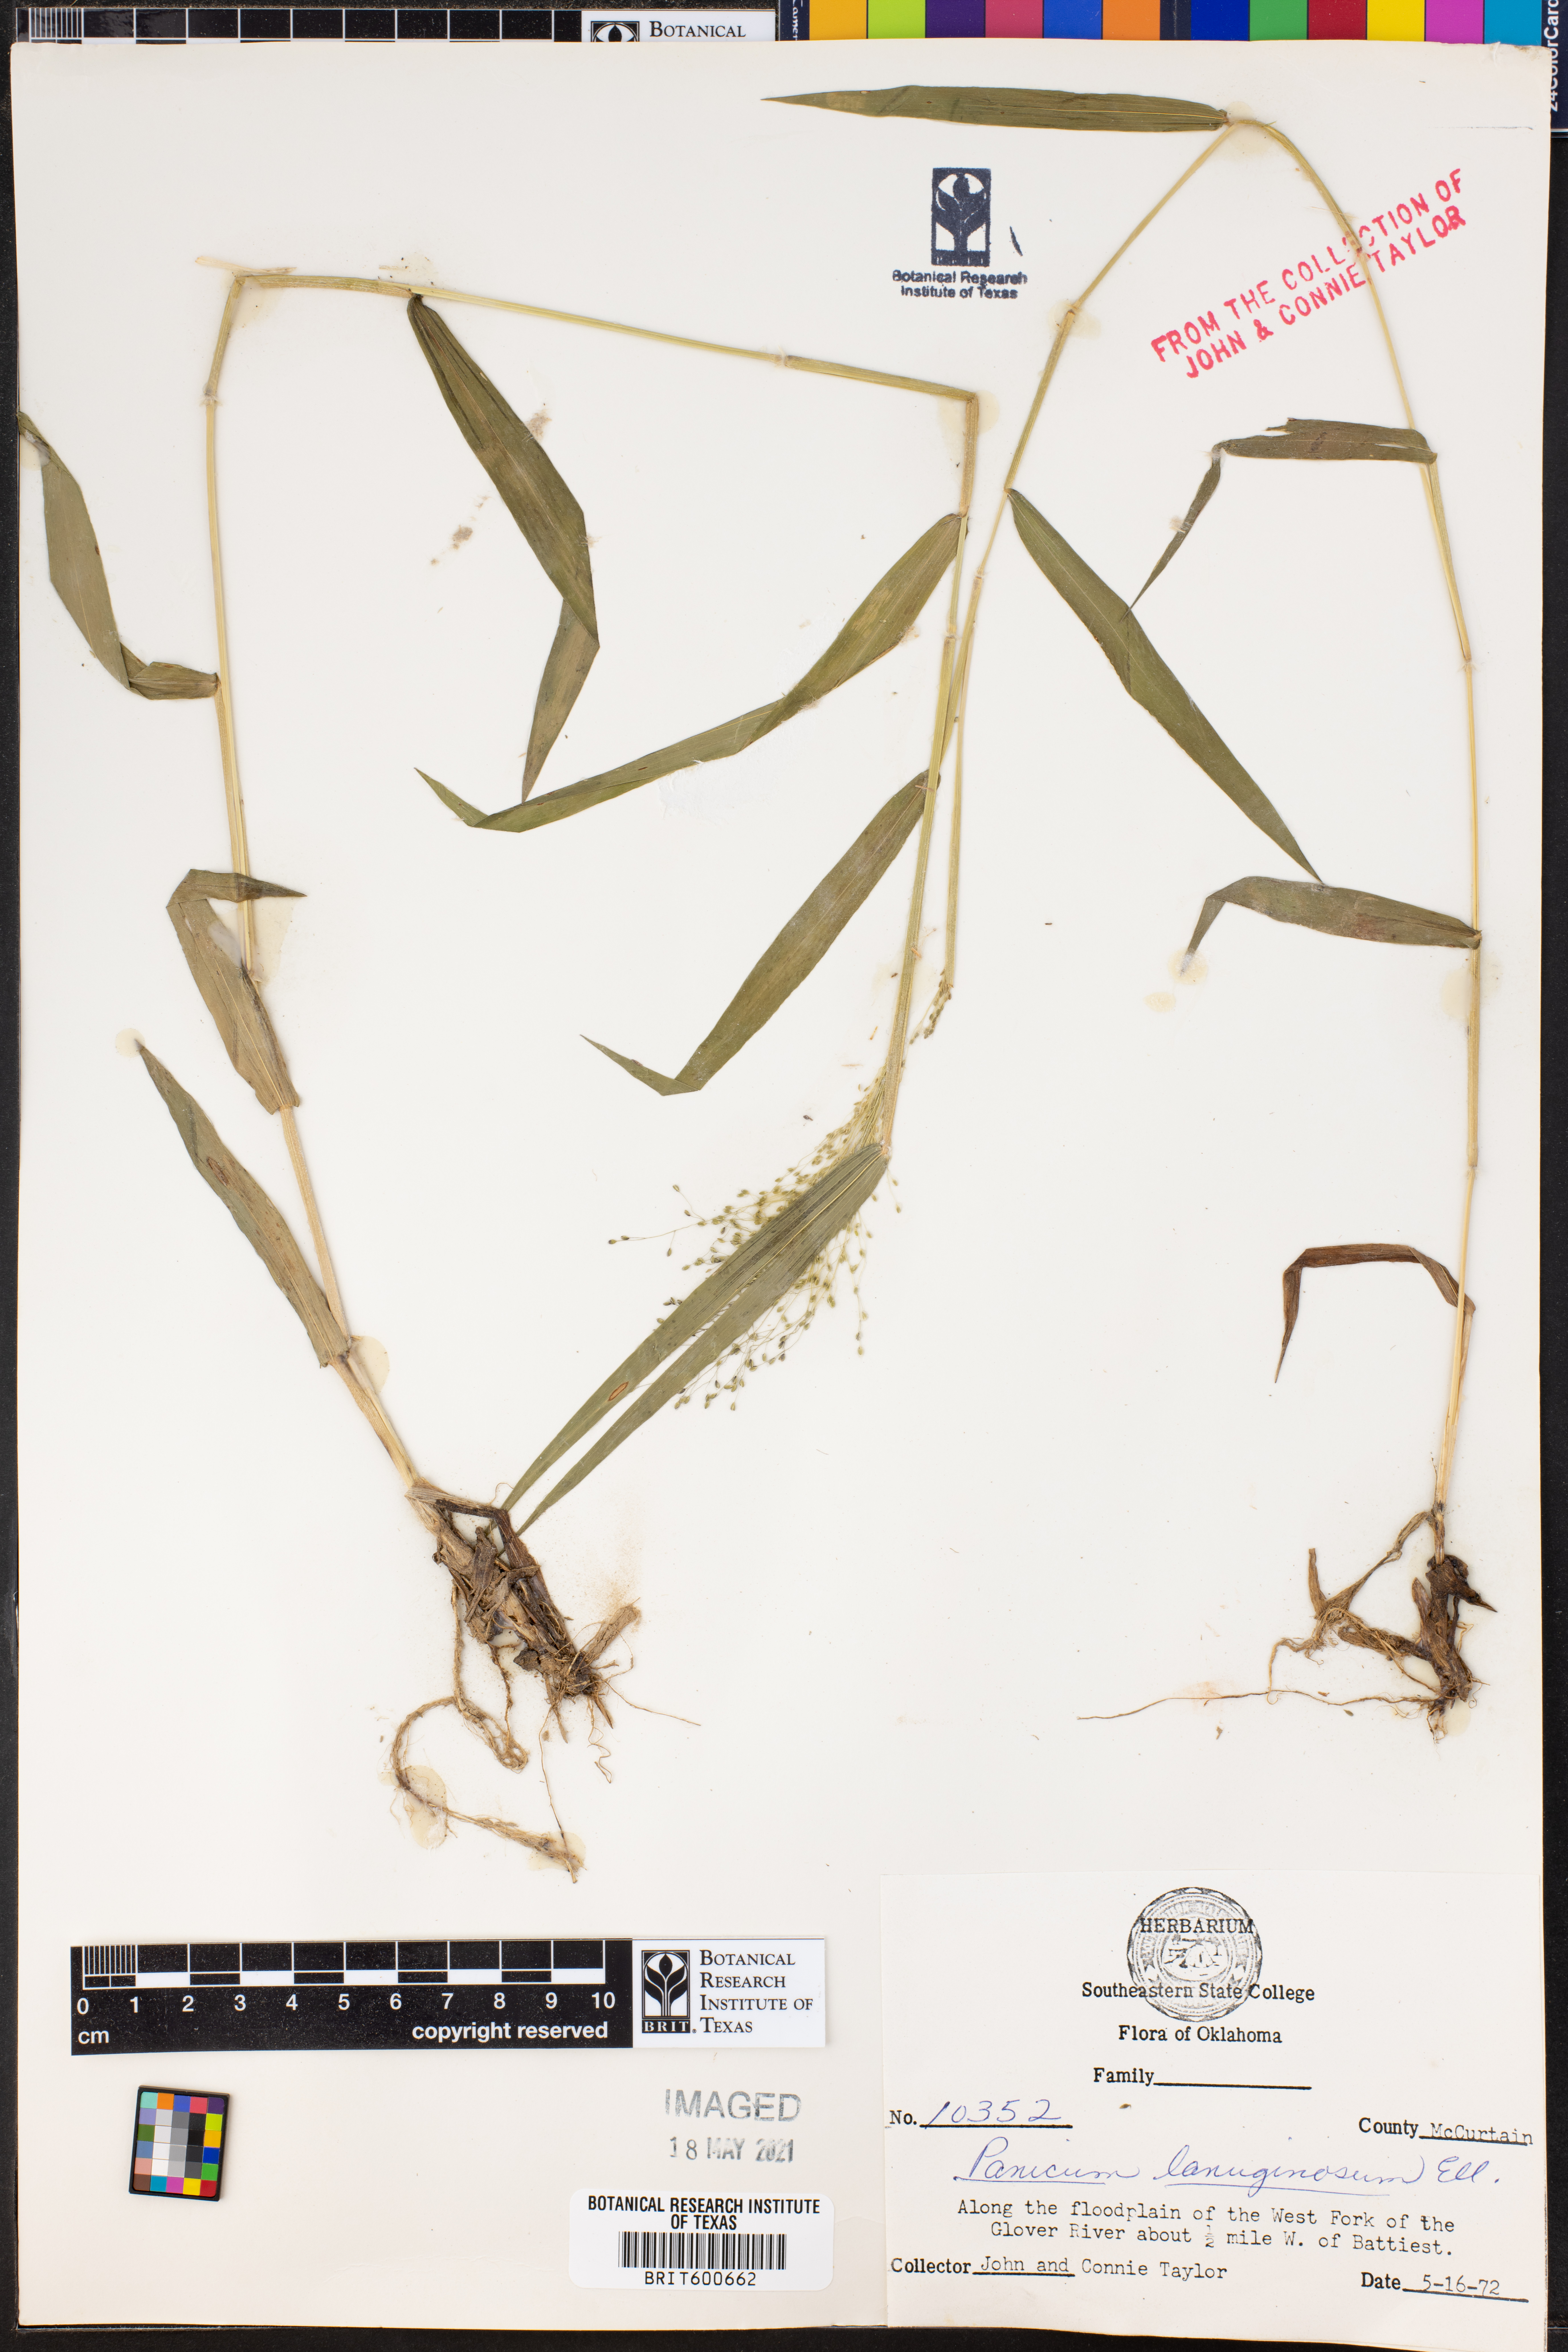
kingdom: Plantae
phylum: Tracheophyta
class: Liliopsida
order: Poales
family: Poaceae
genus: Dichanthelium
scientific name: Dichanthelium lanuginosum
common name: Woolly panicgrass
